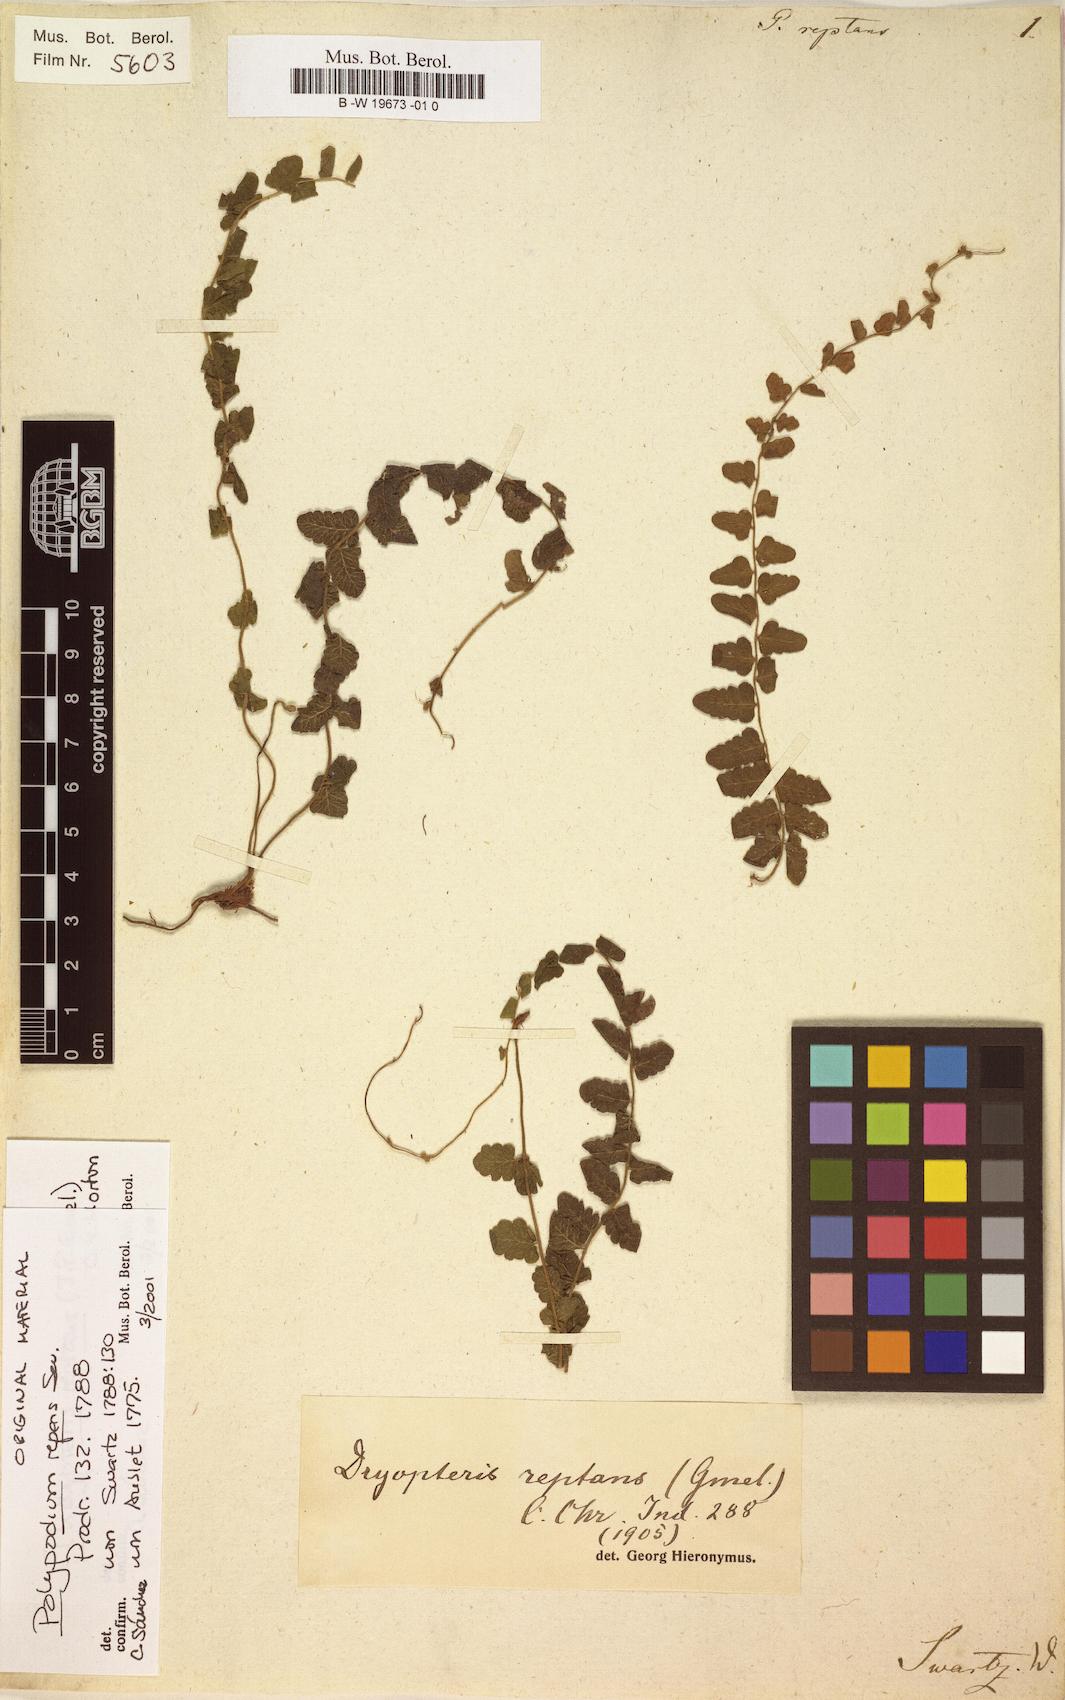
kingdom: Plantae
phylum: Tracheophyta
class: Polypodiopsida
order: Polypodiales
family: Polypodiaceae
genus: Campyloneurum
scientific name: Campyloneurum
